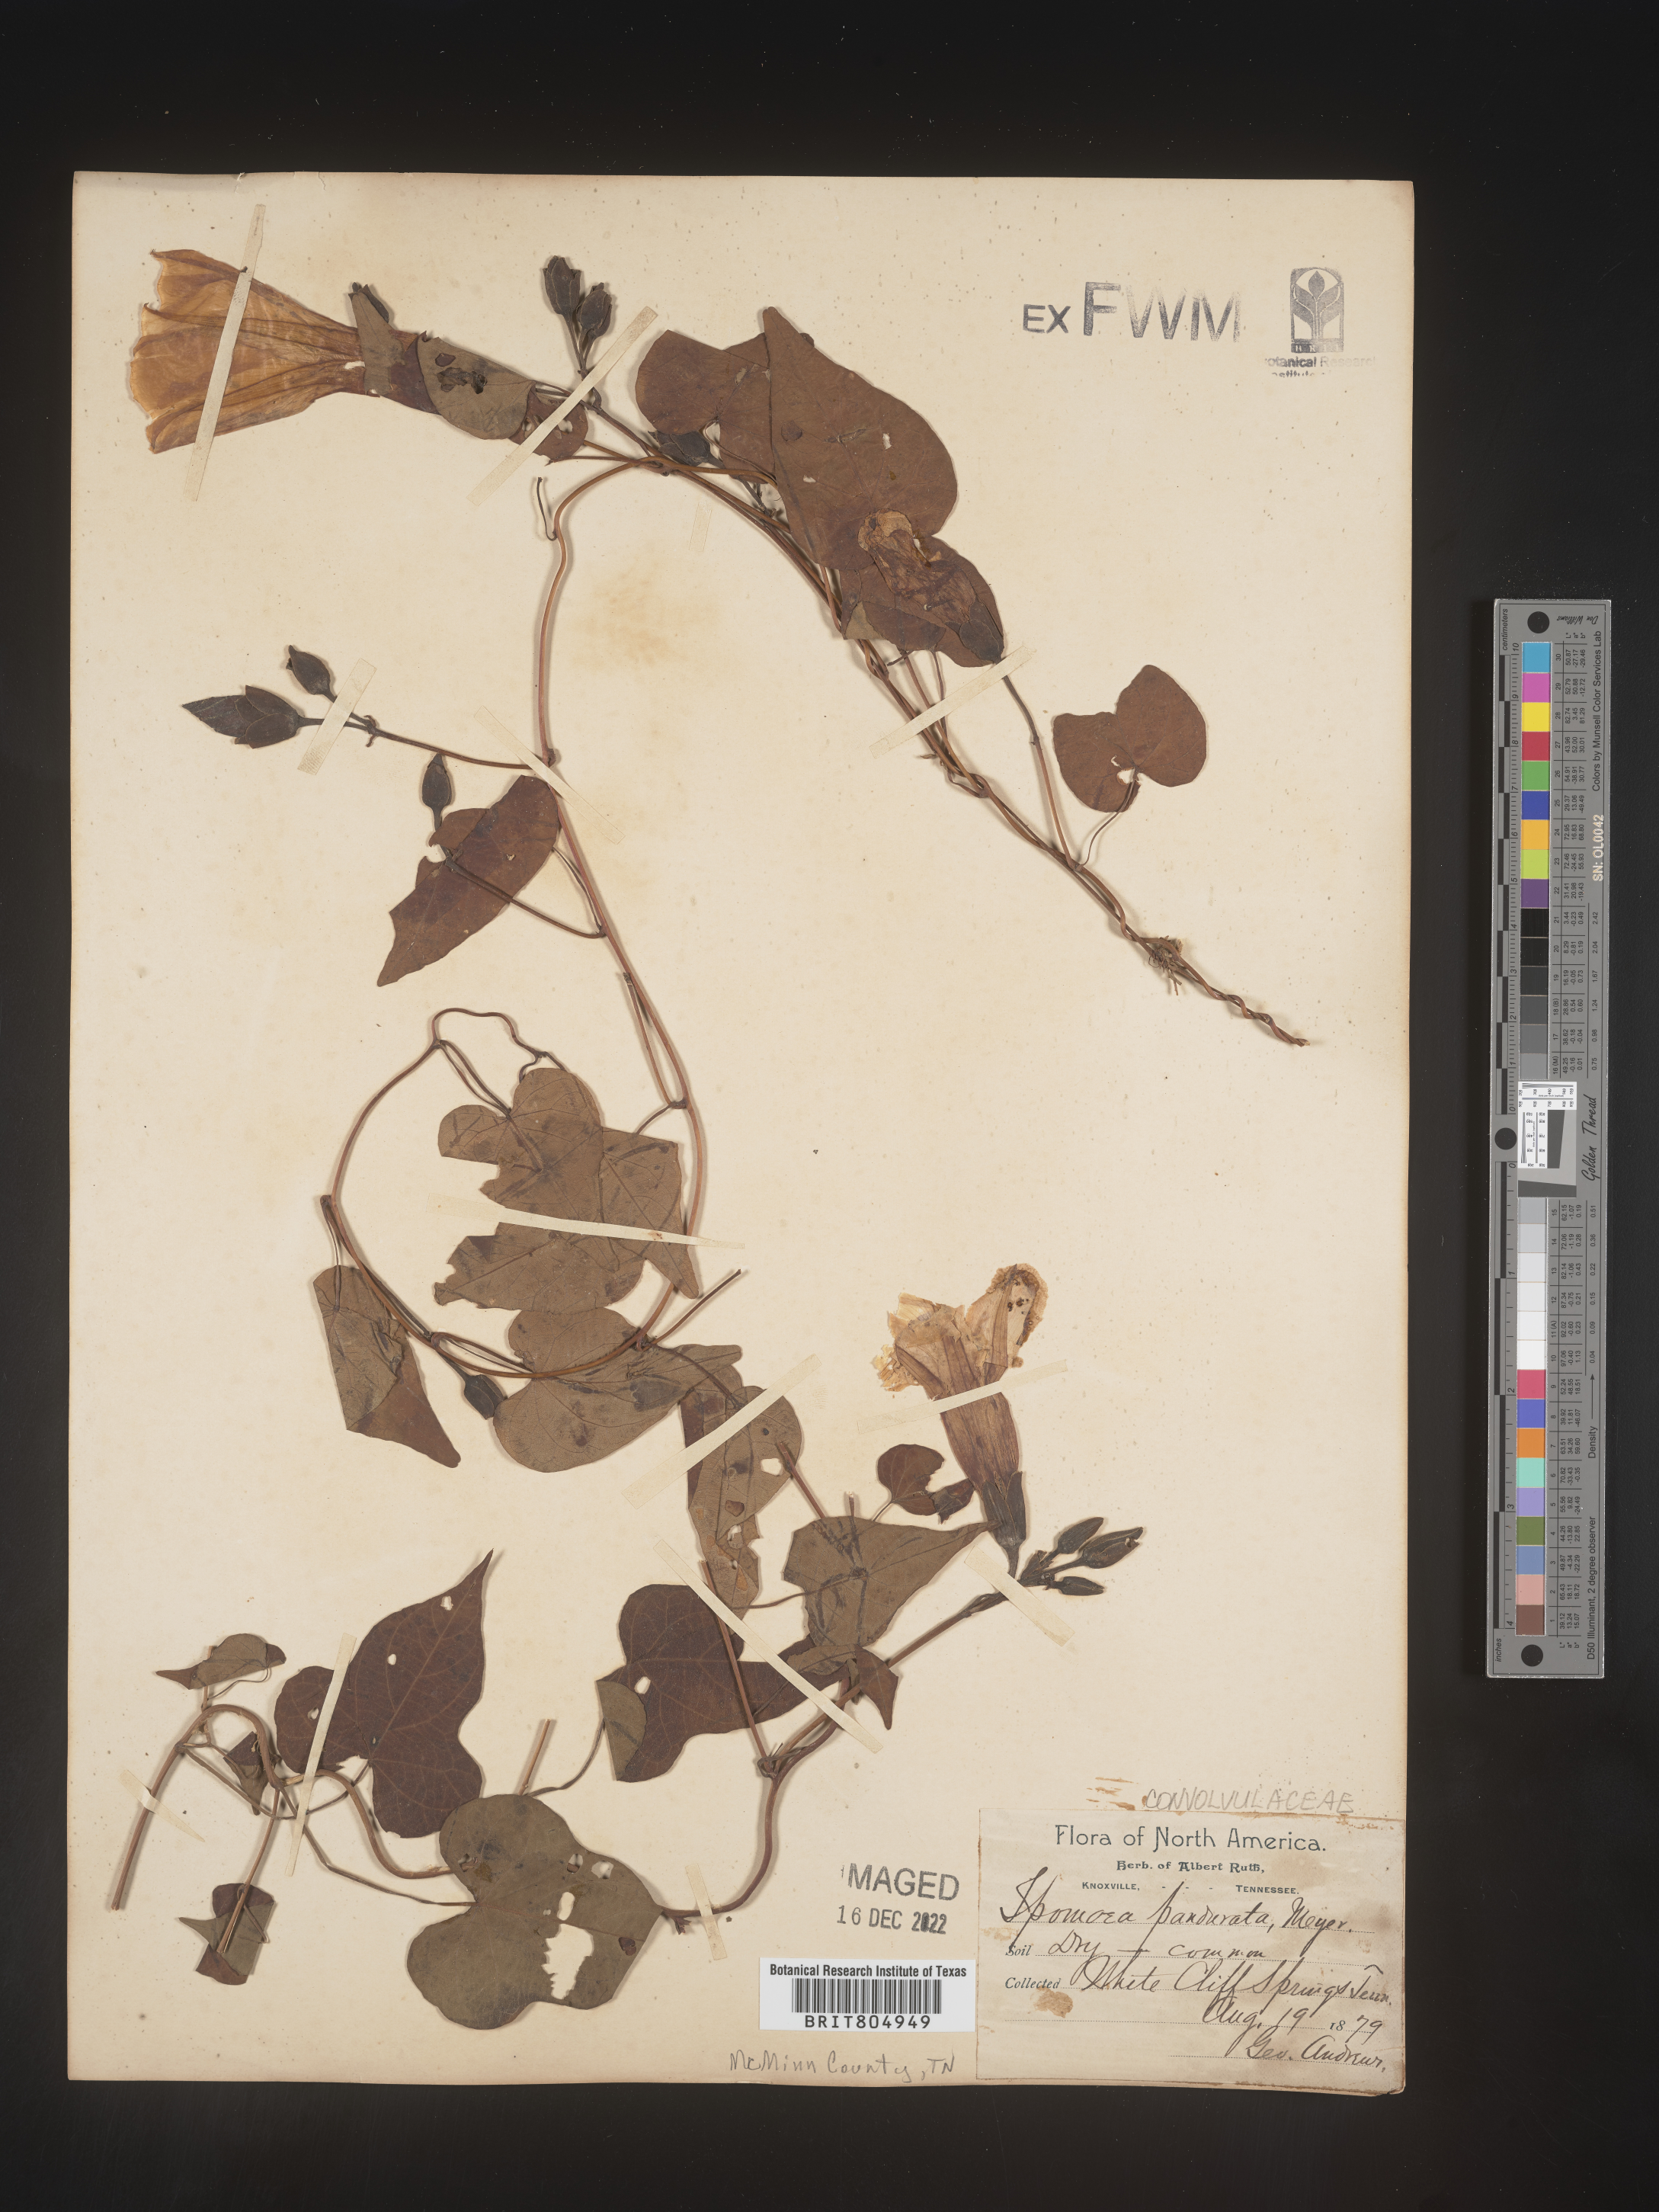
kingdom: Plantae
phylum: Tracheophyta
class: Magnoliopsida
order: Solanales
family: Convolvulaceae
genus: Ipomoea
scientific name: Ipomoea pandurata
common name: Man-of-the-earth
